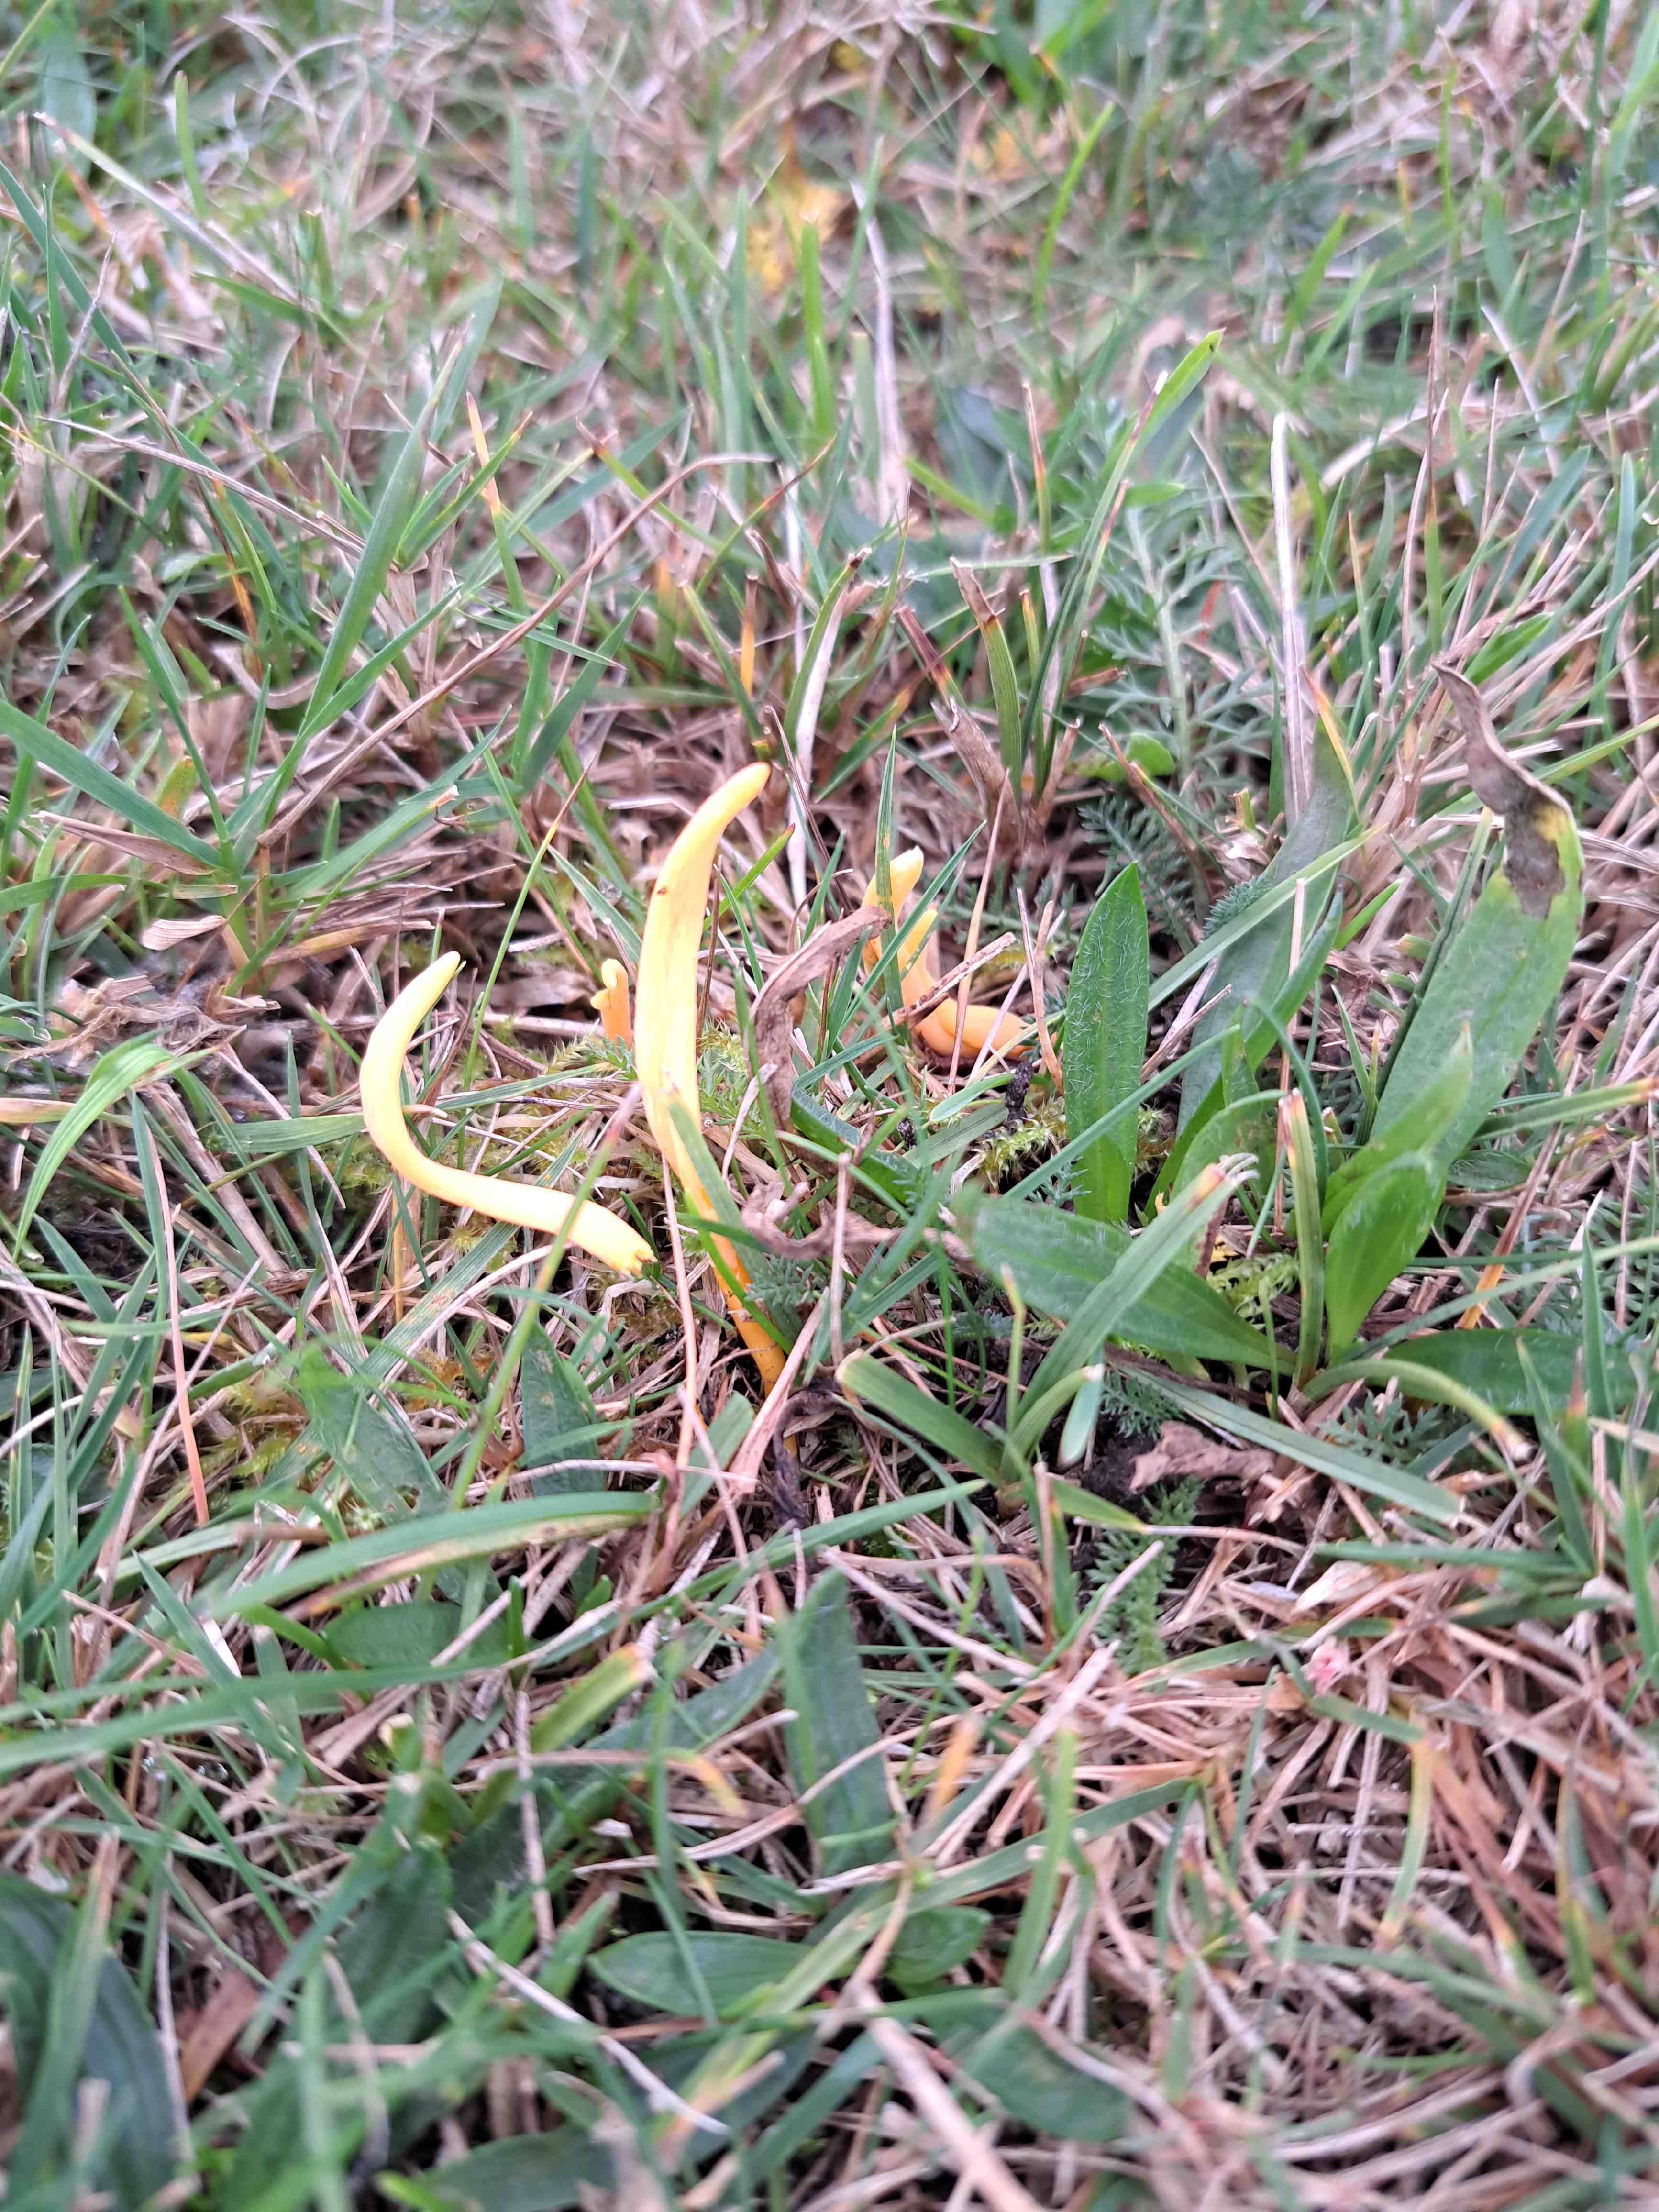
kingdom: Fungi
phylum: Basidiomycota
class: Agaricomycetes
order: Agaricales
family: Clavariaceae
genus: Clavulinopsis
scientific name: Clavulinopsis
